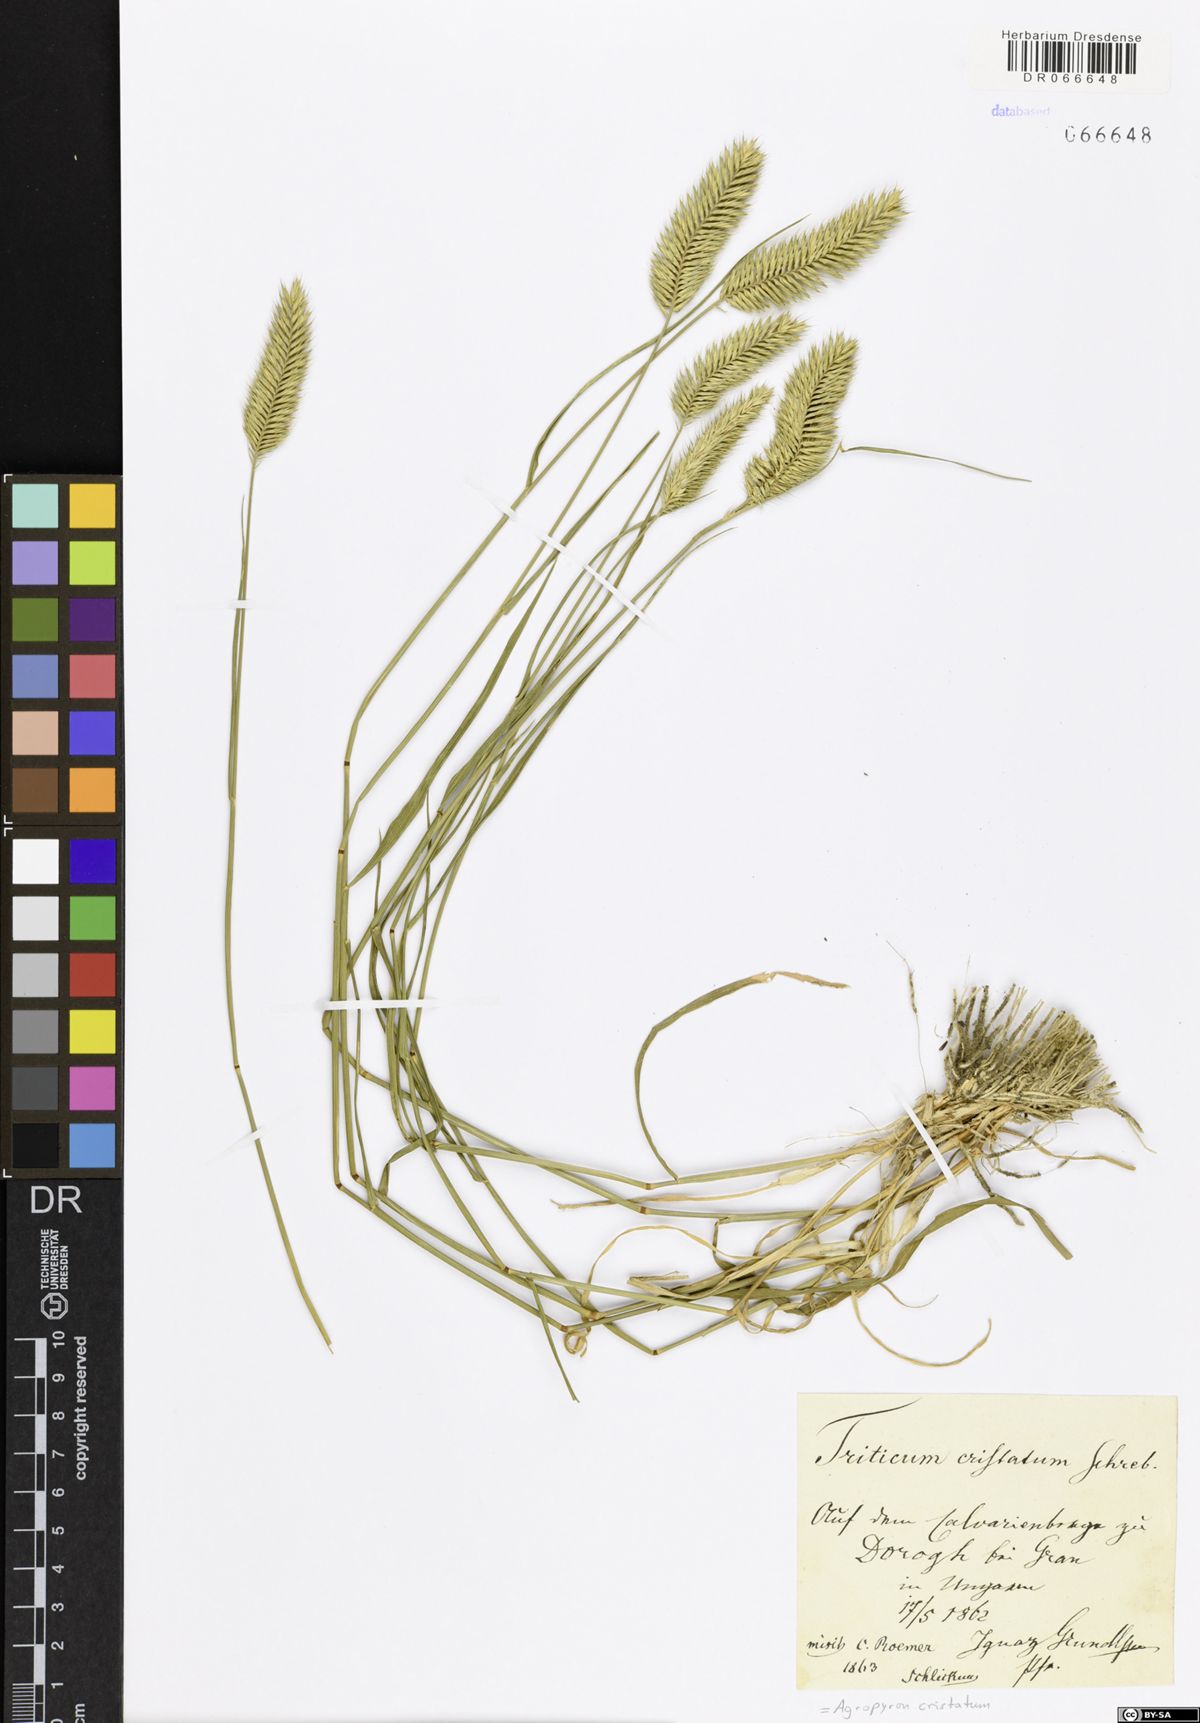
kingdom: Plantae
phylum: Tracheophyta
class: Liliopsida
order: Poales
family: Poaceae
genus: Agropyron
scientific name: Agropyron cristatum
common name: Crested wheatgrass
